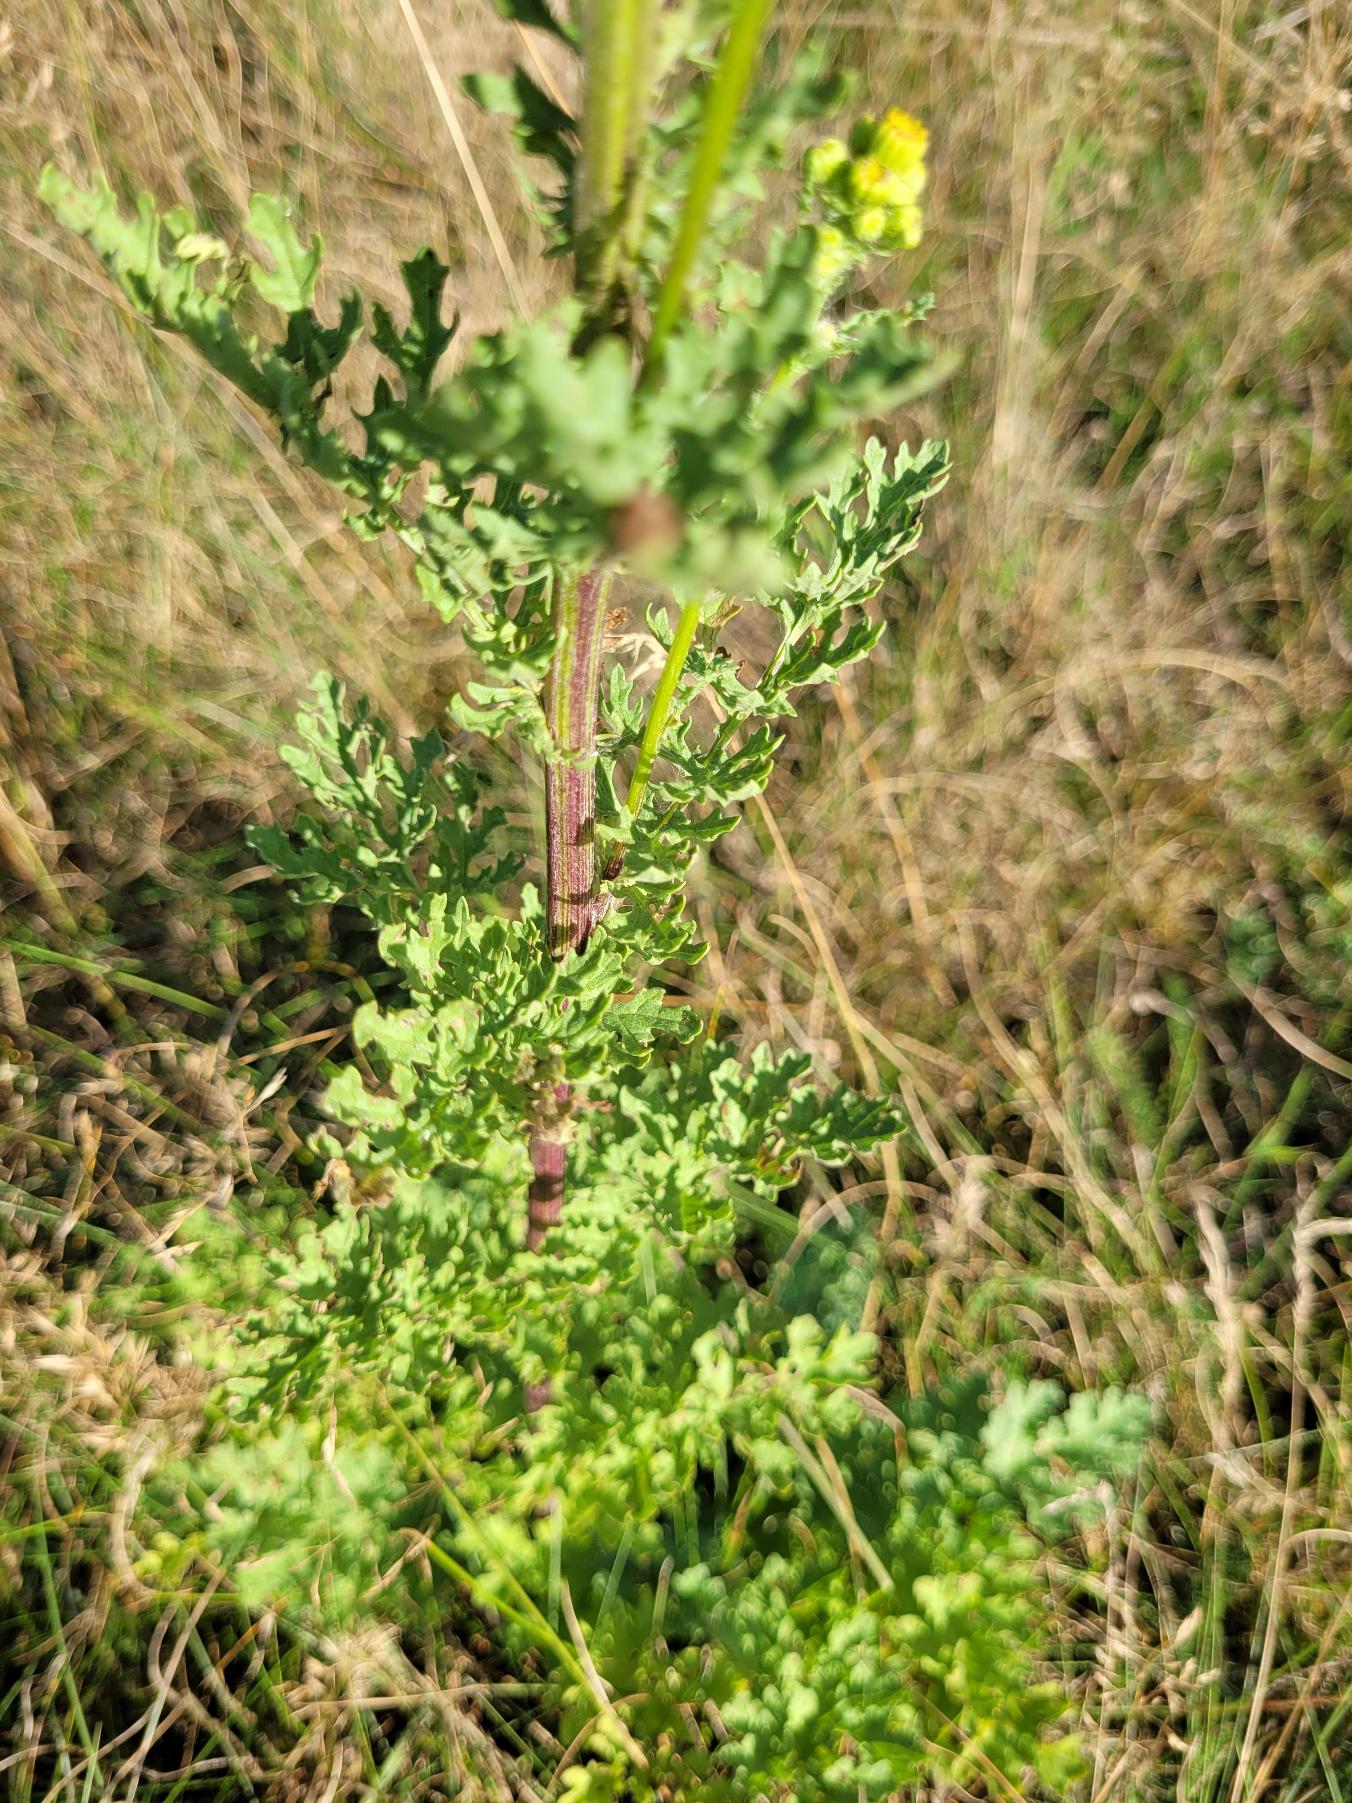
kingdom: Plantae
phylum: Tracheophyta
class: Magnoliopsida
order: Asterales
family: Asteraceae
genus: Jacobaea
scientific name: Jacobaea vulgaris
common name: Eng-brandbæger
